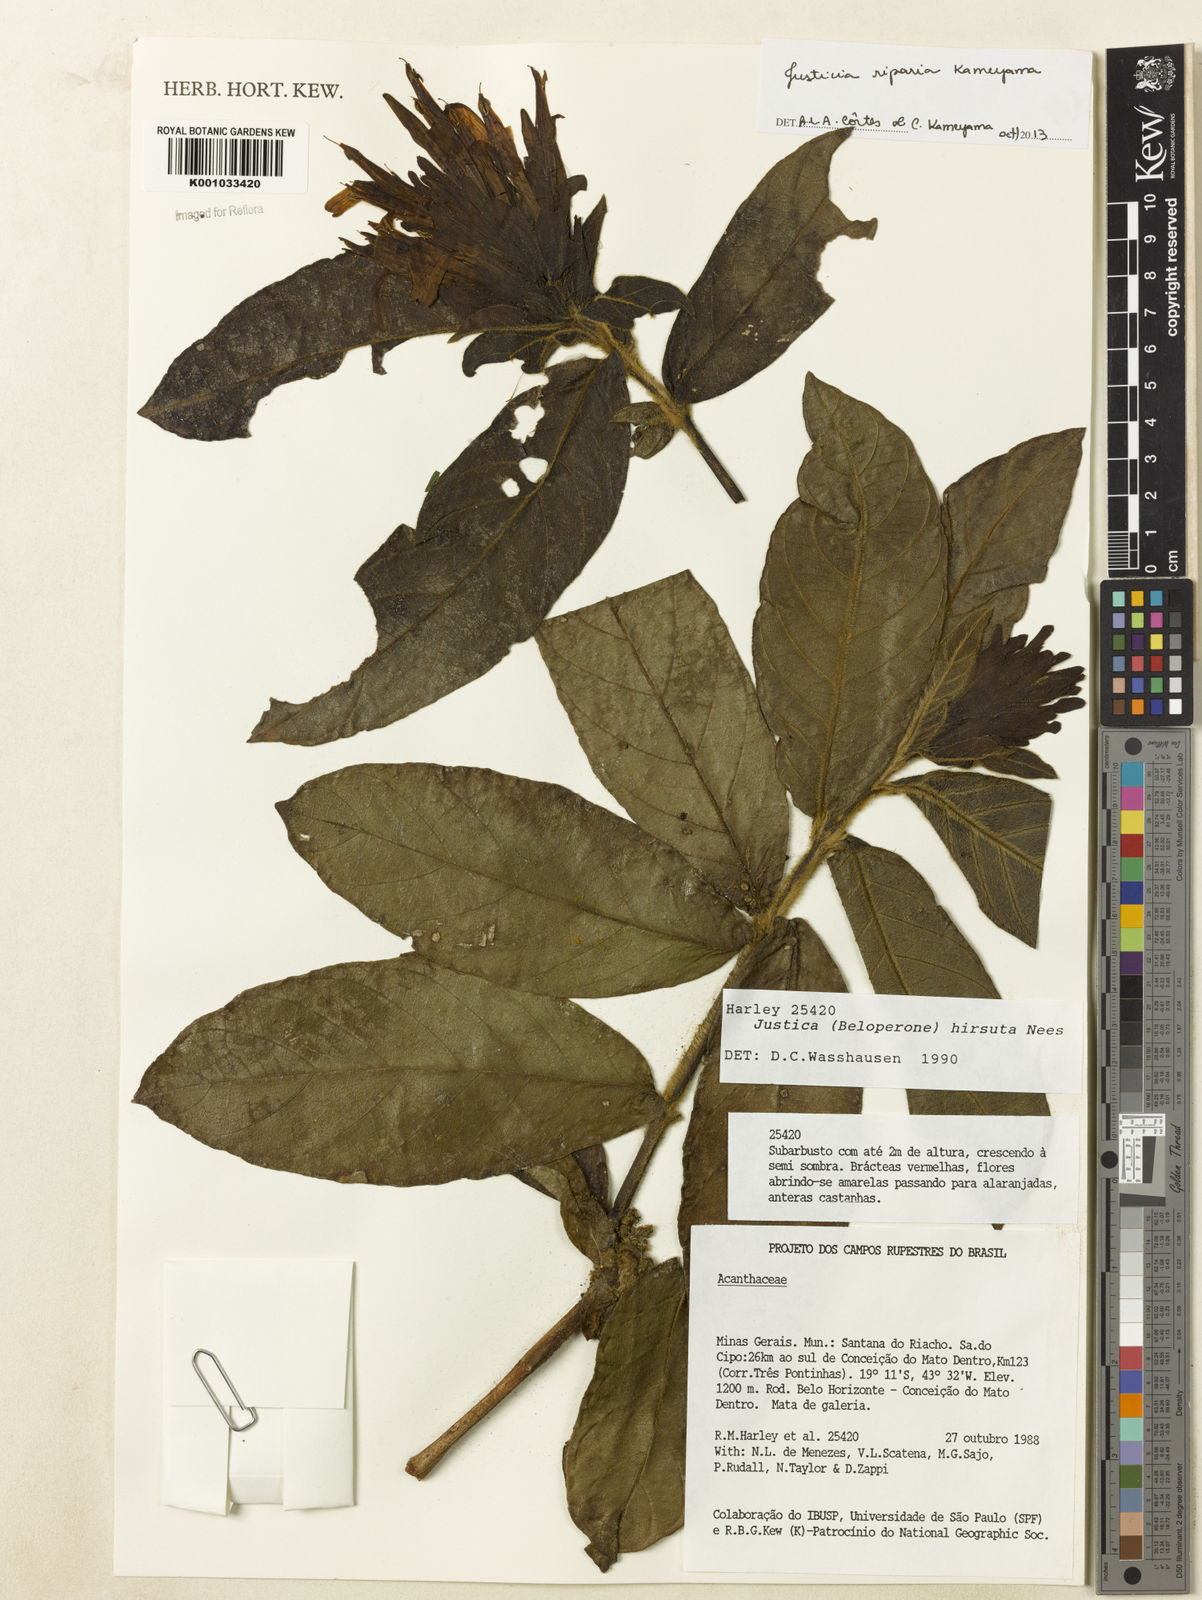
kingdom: Plantae
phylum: Tracheophyta
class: Magnoliopsida
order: Lamiales
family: Acanthaceae
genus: Justicia
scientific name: Justicia riparia
